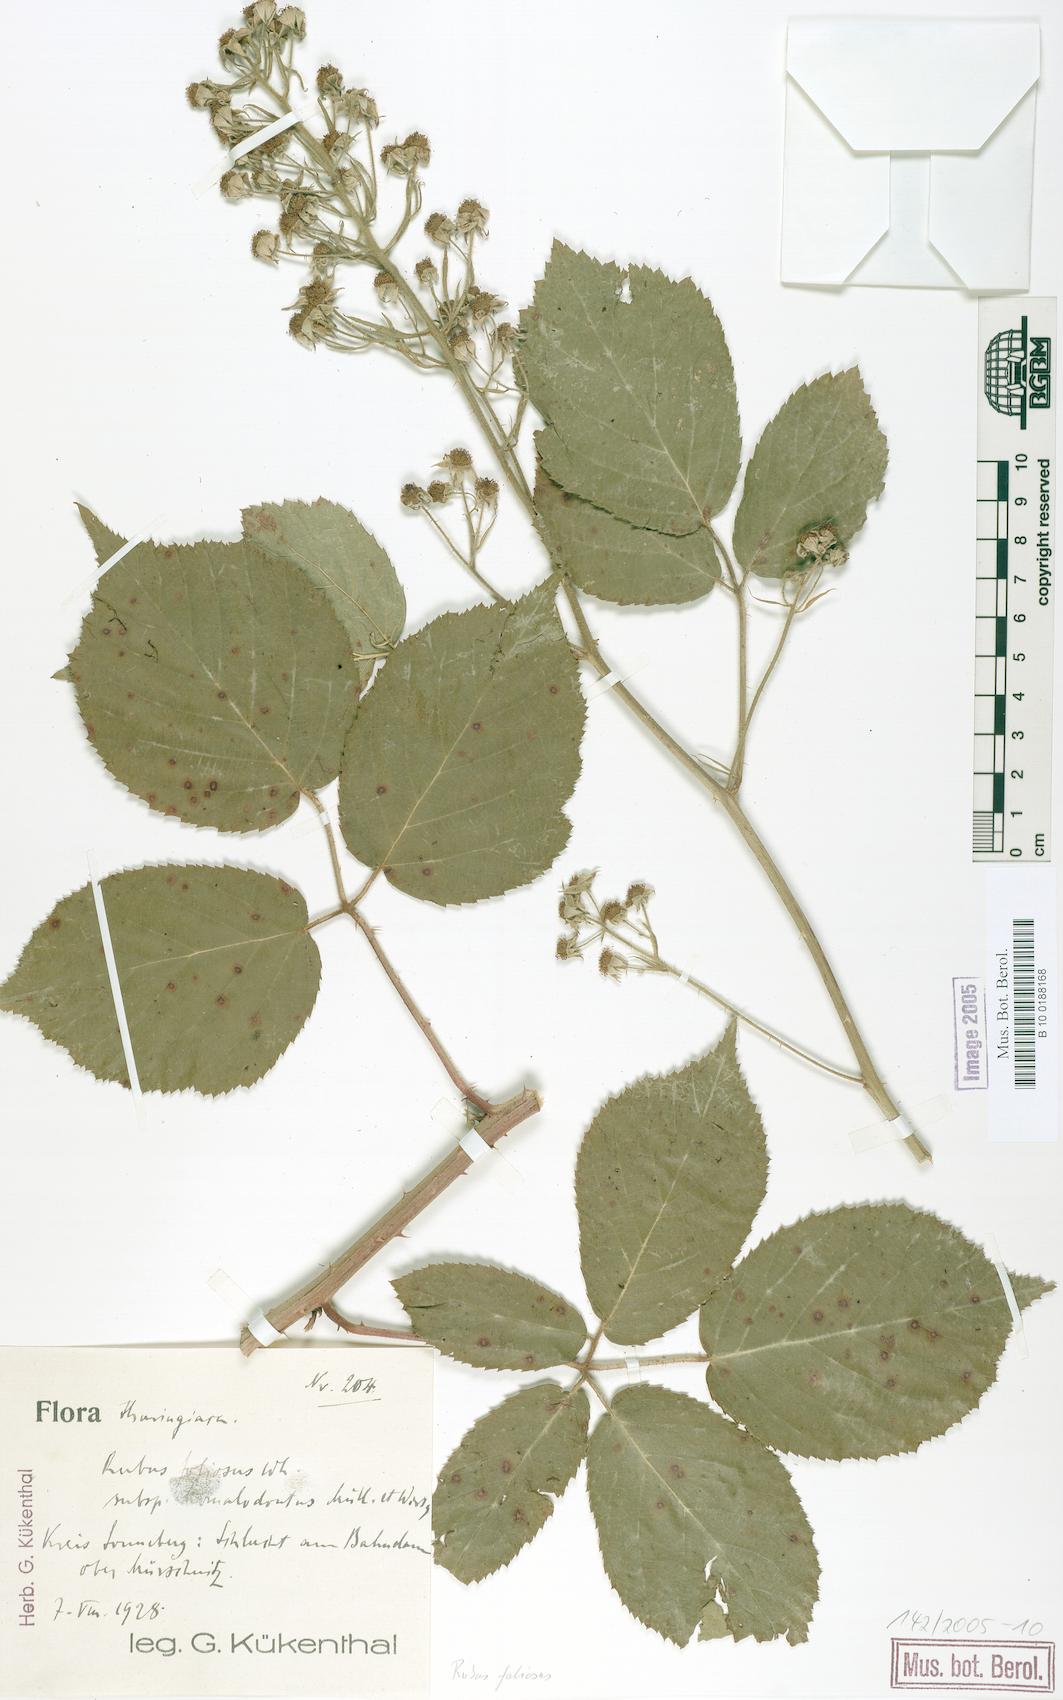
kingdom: Plantae
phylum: Tracheophyta
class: Magnoliopsida
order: Rosales
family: Rosaceae
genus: Rubus
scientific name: Rubus silvae-thuringiae
